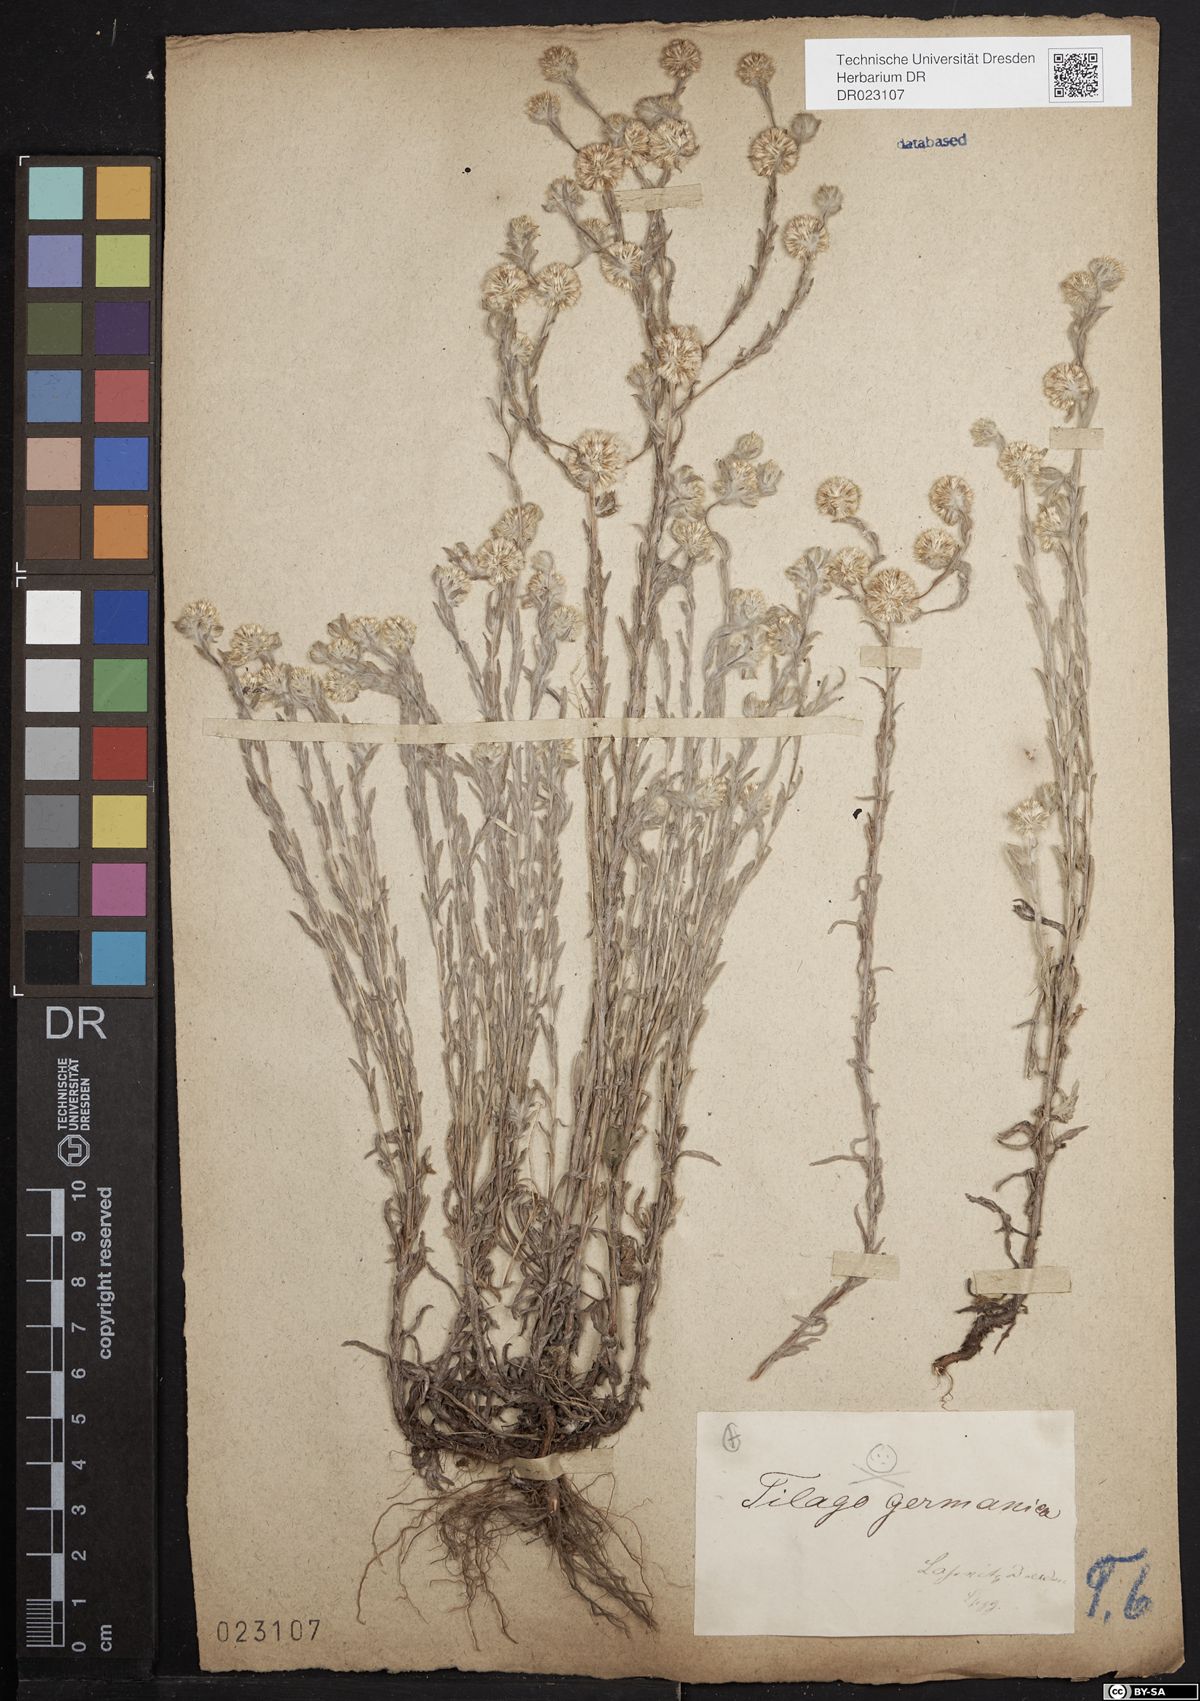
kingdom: Plantae
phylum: Tracheophyta
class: Magnoliopsida
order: Asterales
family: Asteraceae
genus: Filago
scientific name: Filago germanica
